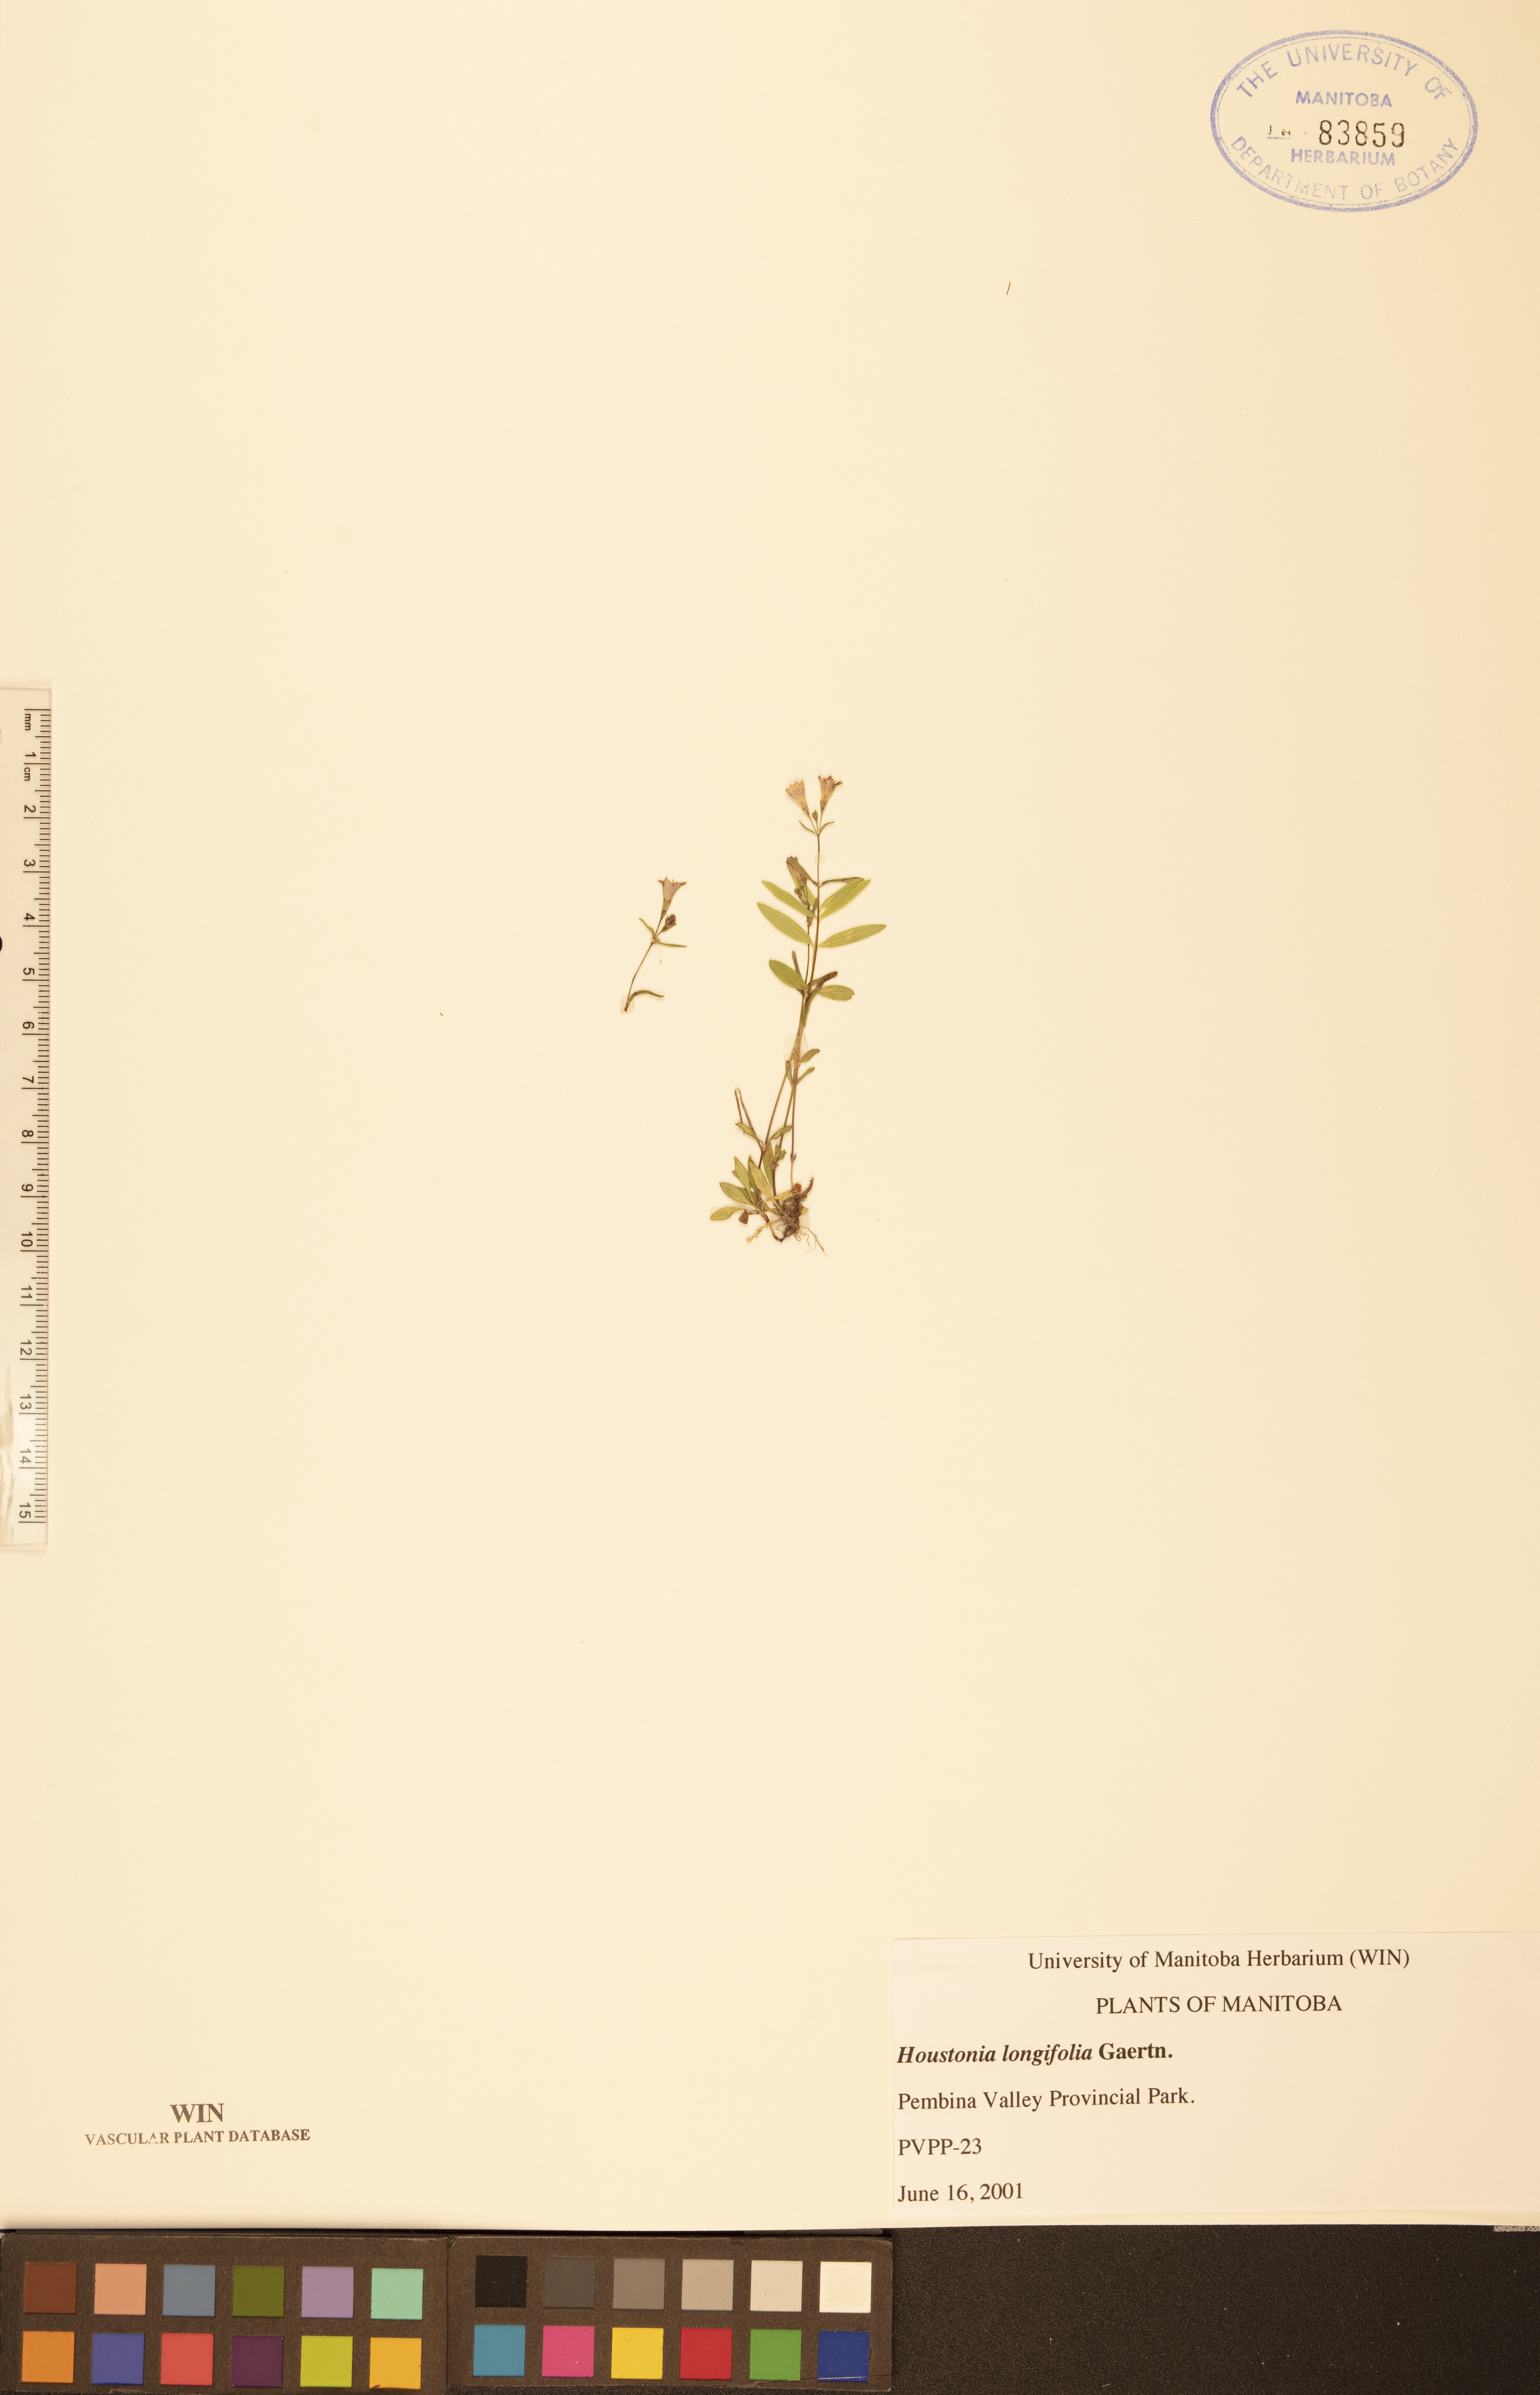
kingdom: Plantae
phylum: Tracheophyta
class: Magnoliopsida
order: Gentianales
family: Rubiaceae
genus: Houstonia
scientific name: Houstonia longifolia
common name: Long-leaved bluets
